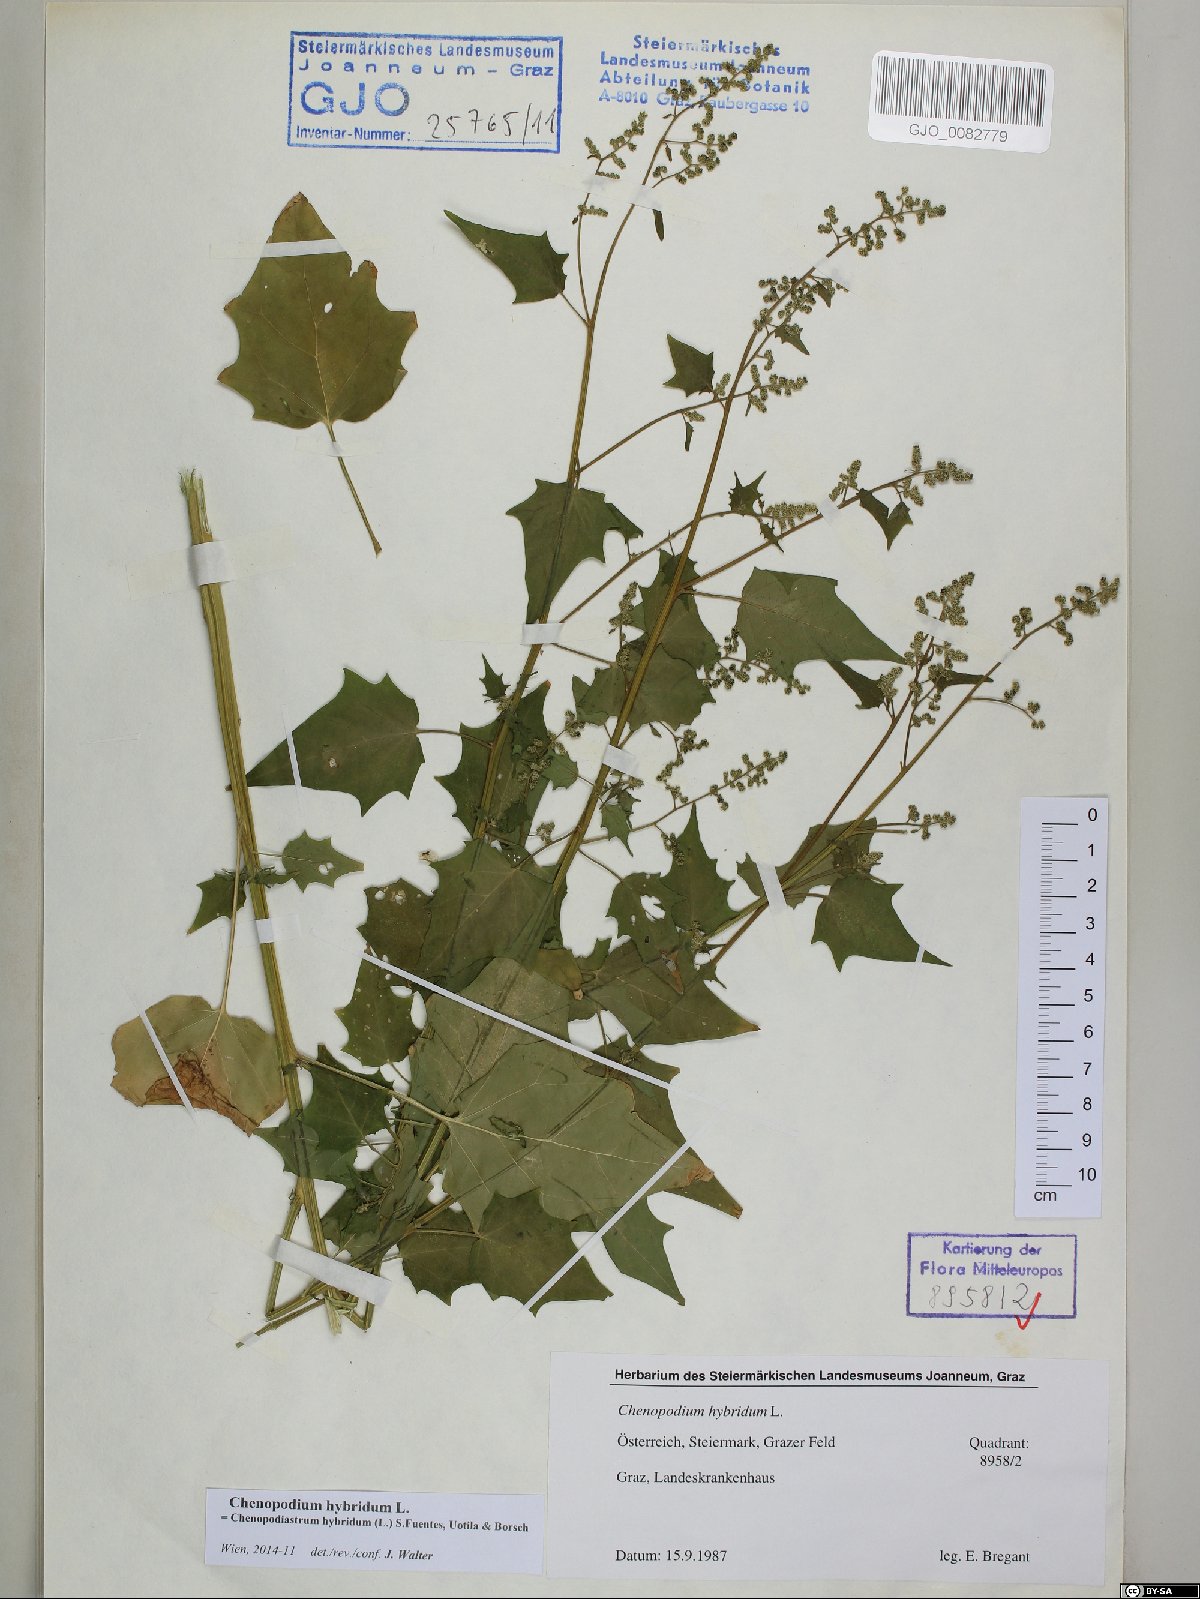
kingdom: Plantae
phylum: Tracheophyta
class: Magnoliopsida
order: Caryophyllales
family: Amaranthaceae
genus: Chenopodiastrum
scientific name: Chenopodiastrum hybridum
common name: Mapleleaf goosefoot
